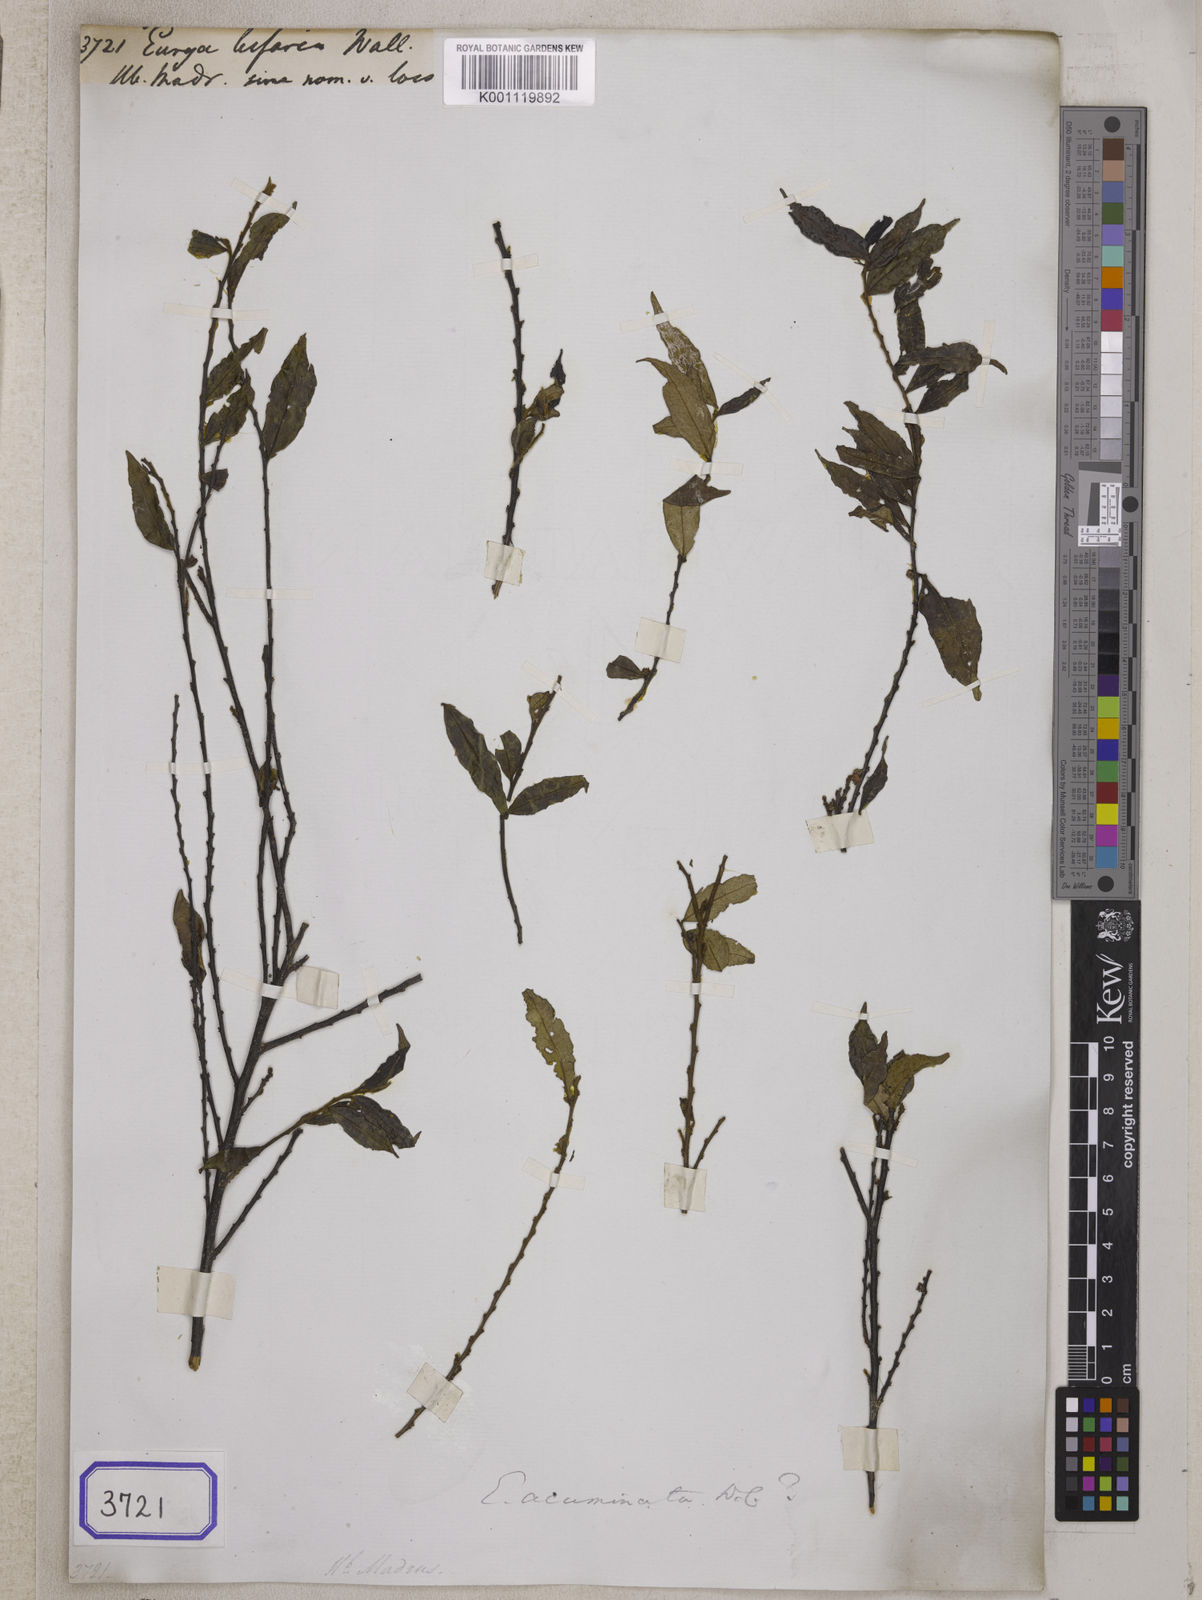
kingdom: Plantae
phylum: Tracheophyta
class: Magnoliopsida
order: Ericales
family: Pentaphylacaceae
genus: Eurya
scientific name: Eurya acuminata
